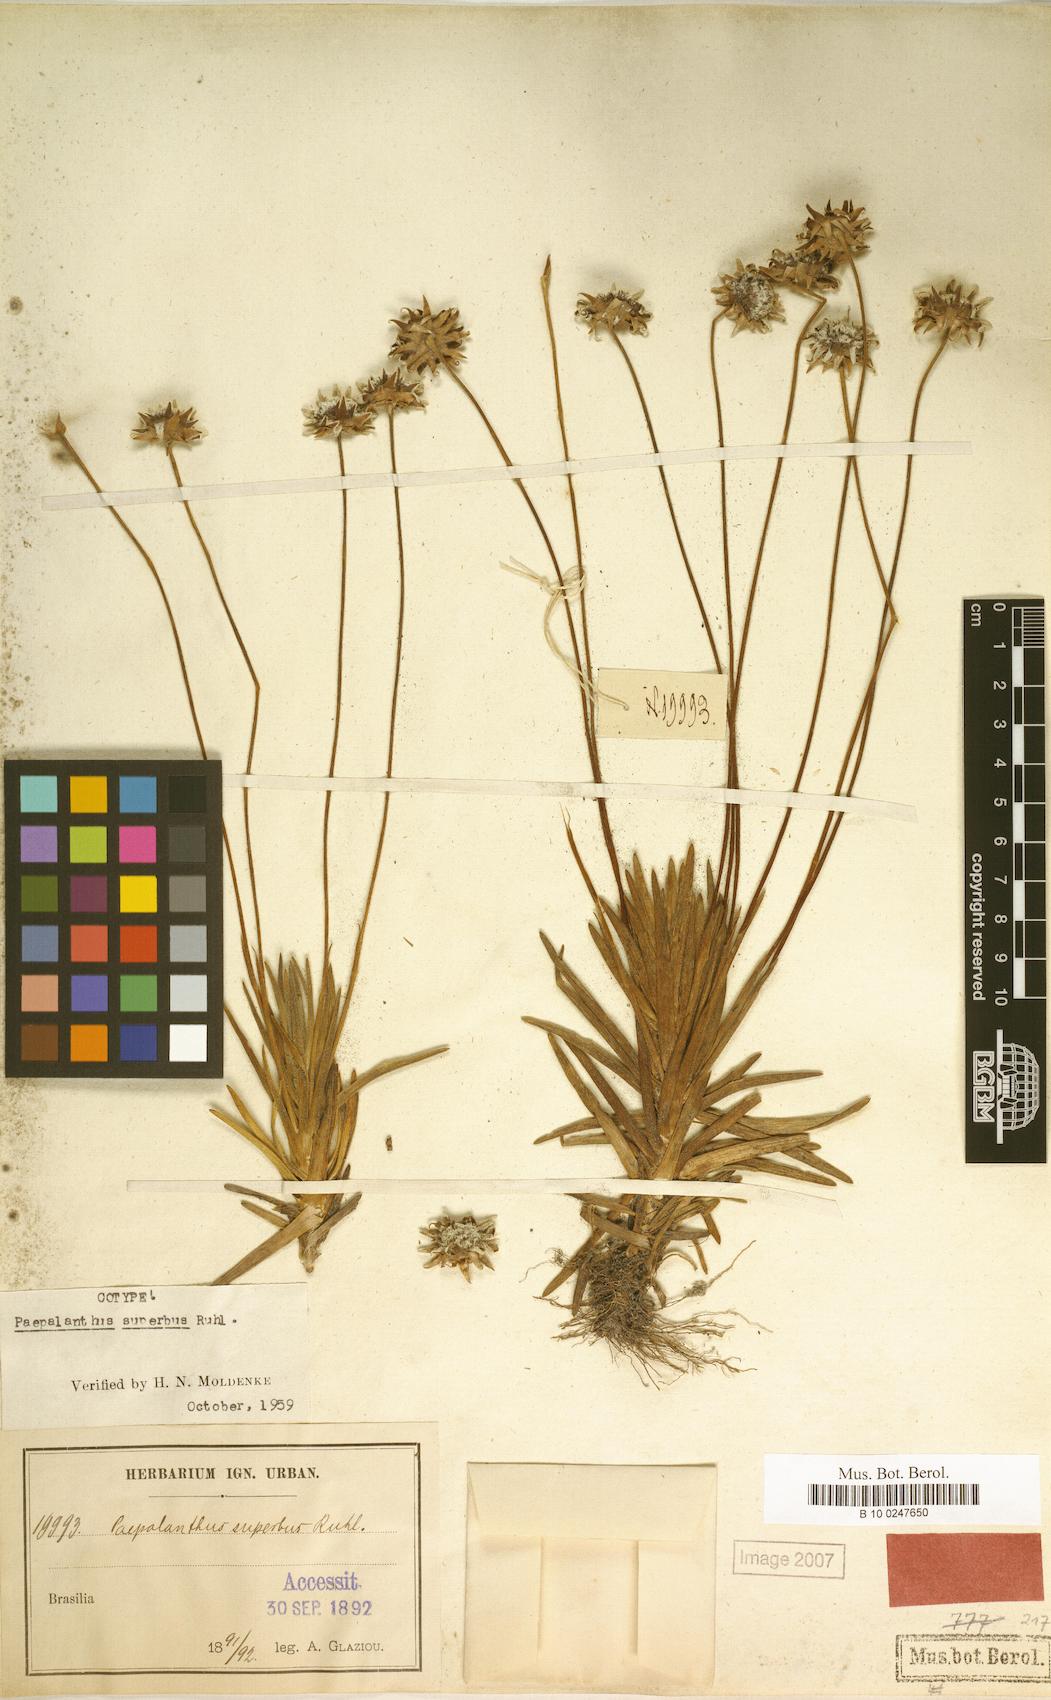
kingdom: Plantae
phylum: Tracheophyta
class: Liliopsida
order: Poales
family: Eriocaulaceae
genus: Paepalanthus
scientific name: Paepalanthus superbus
